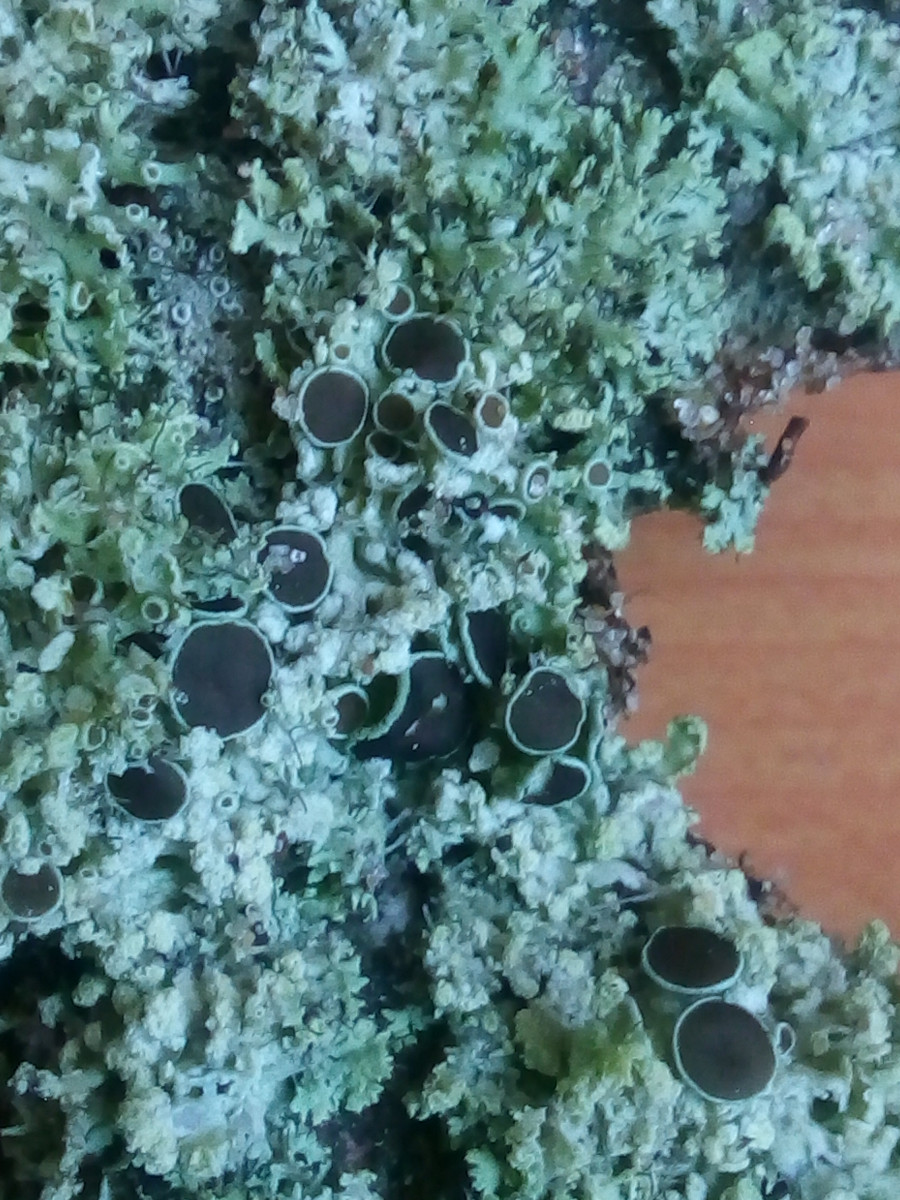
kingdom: Fungi
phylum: Ascomycota
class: Lecanoromycetes
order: Caliciales
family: Physciaceae
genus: Physcia
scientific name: Physcia tenella
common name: spæd rosetlav
